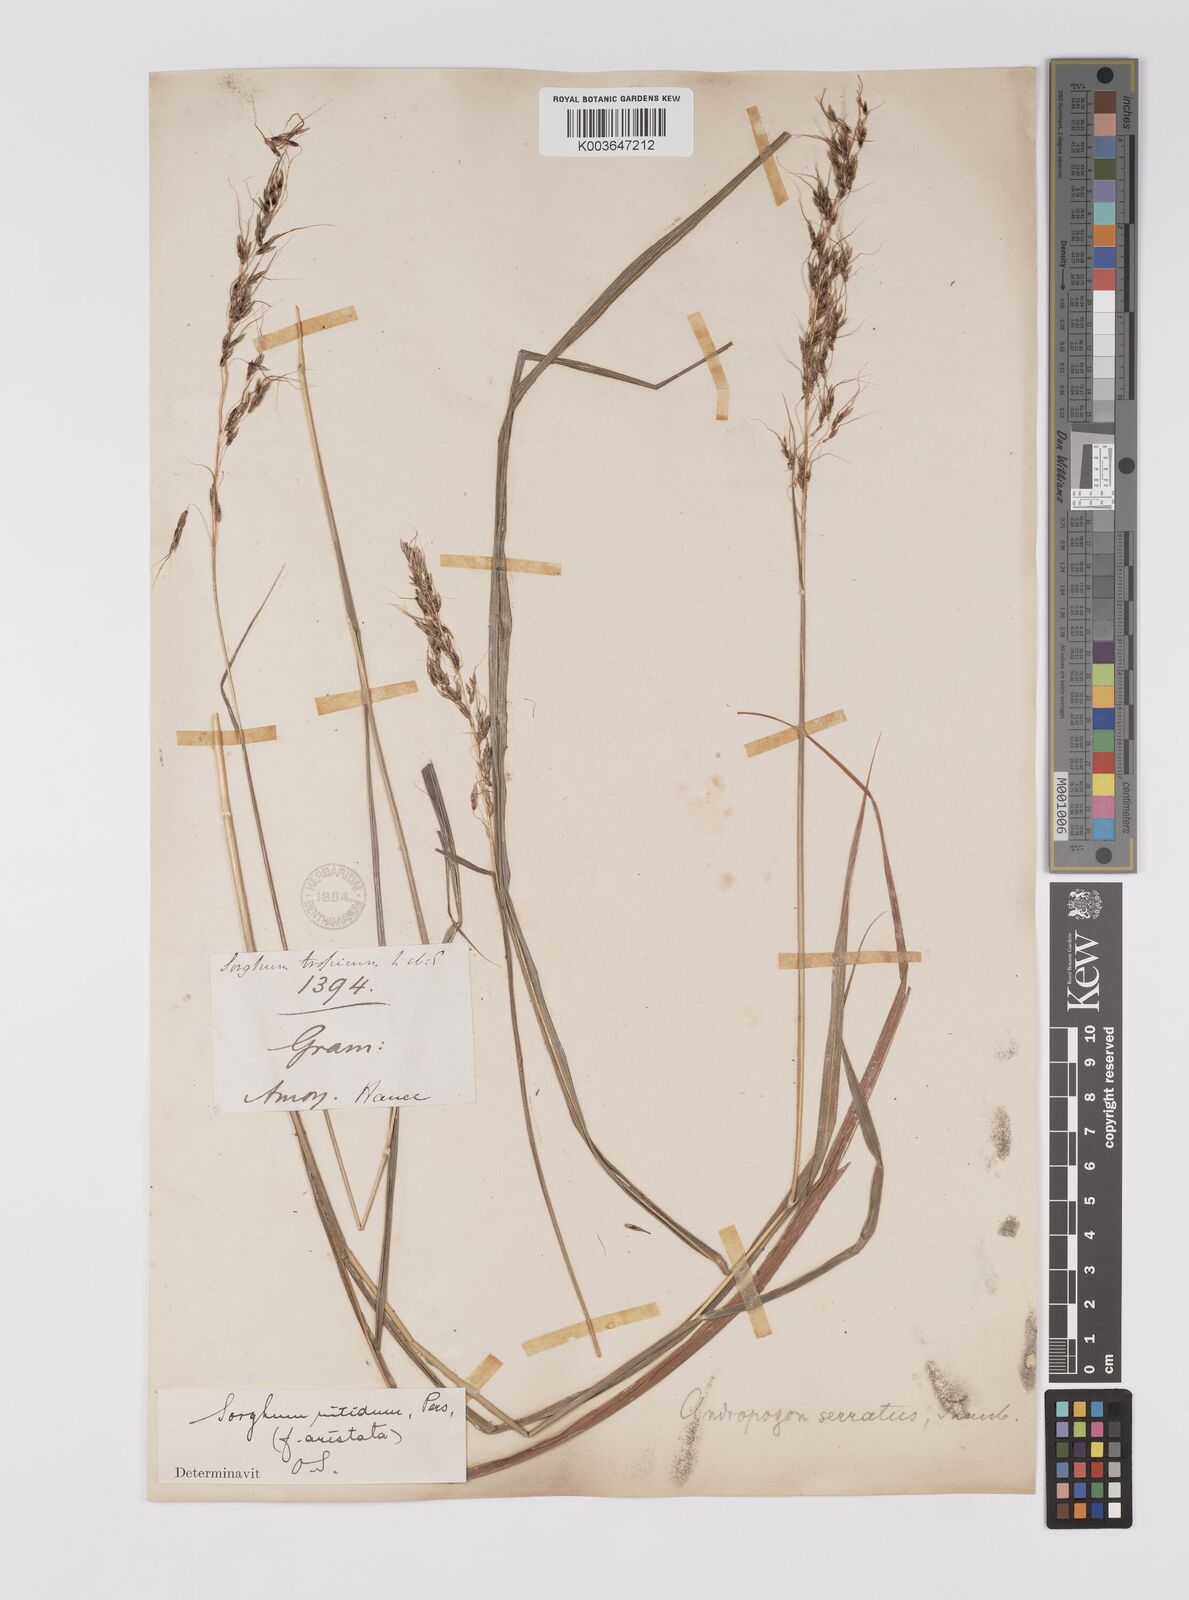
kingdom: Plantae
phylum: Tracheophyta
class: Liliopsida
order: Poales
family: Poaceae
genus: Sorghum
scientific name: Sorghum nitidum
